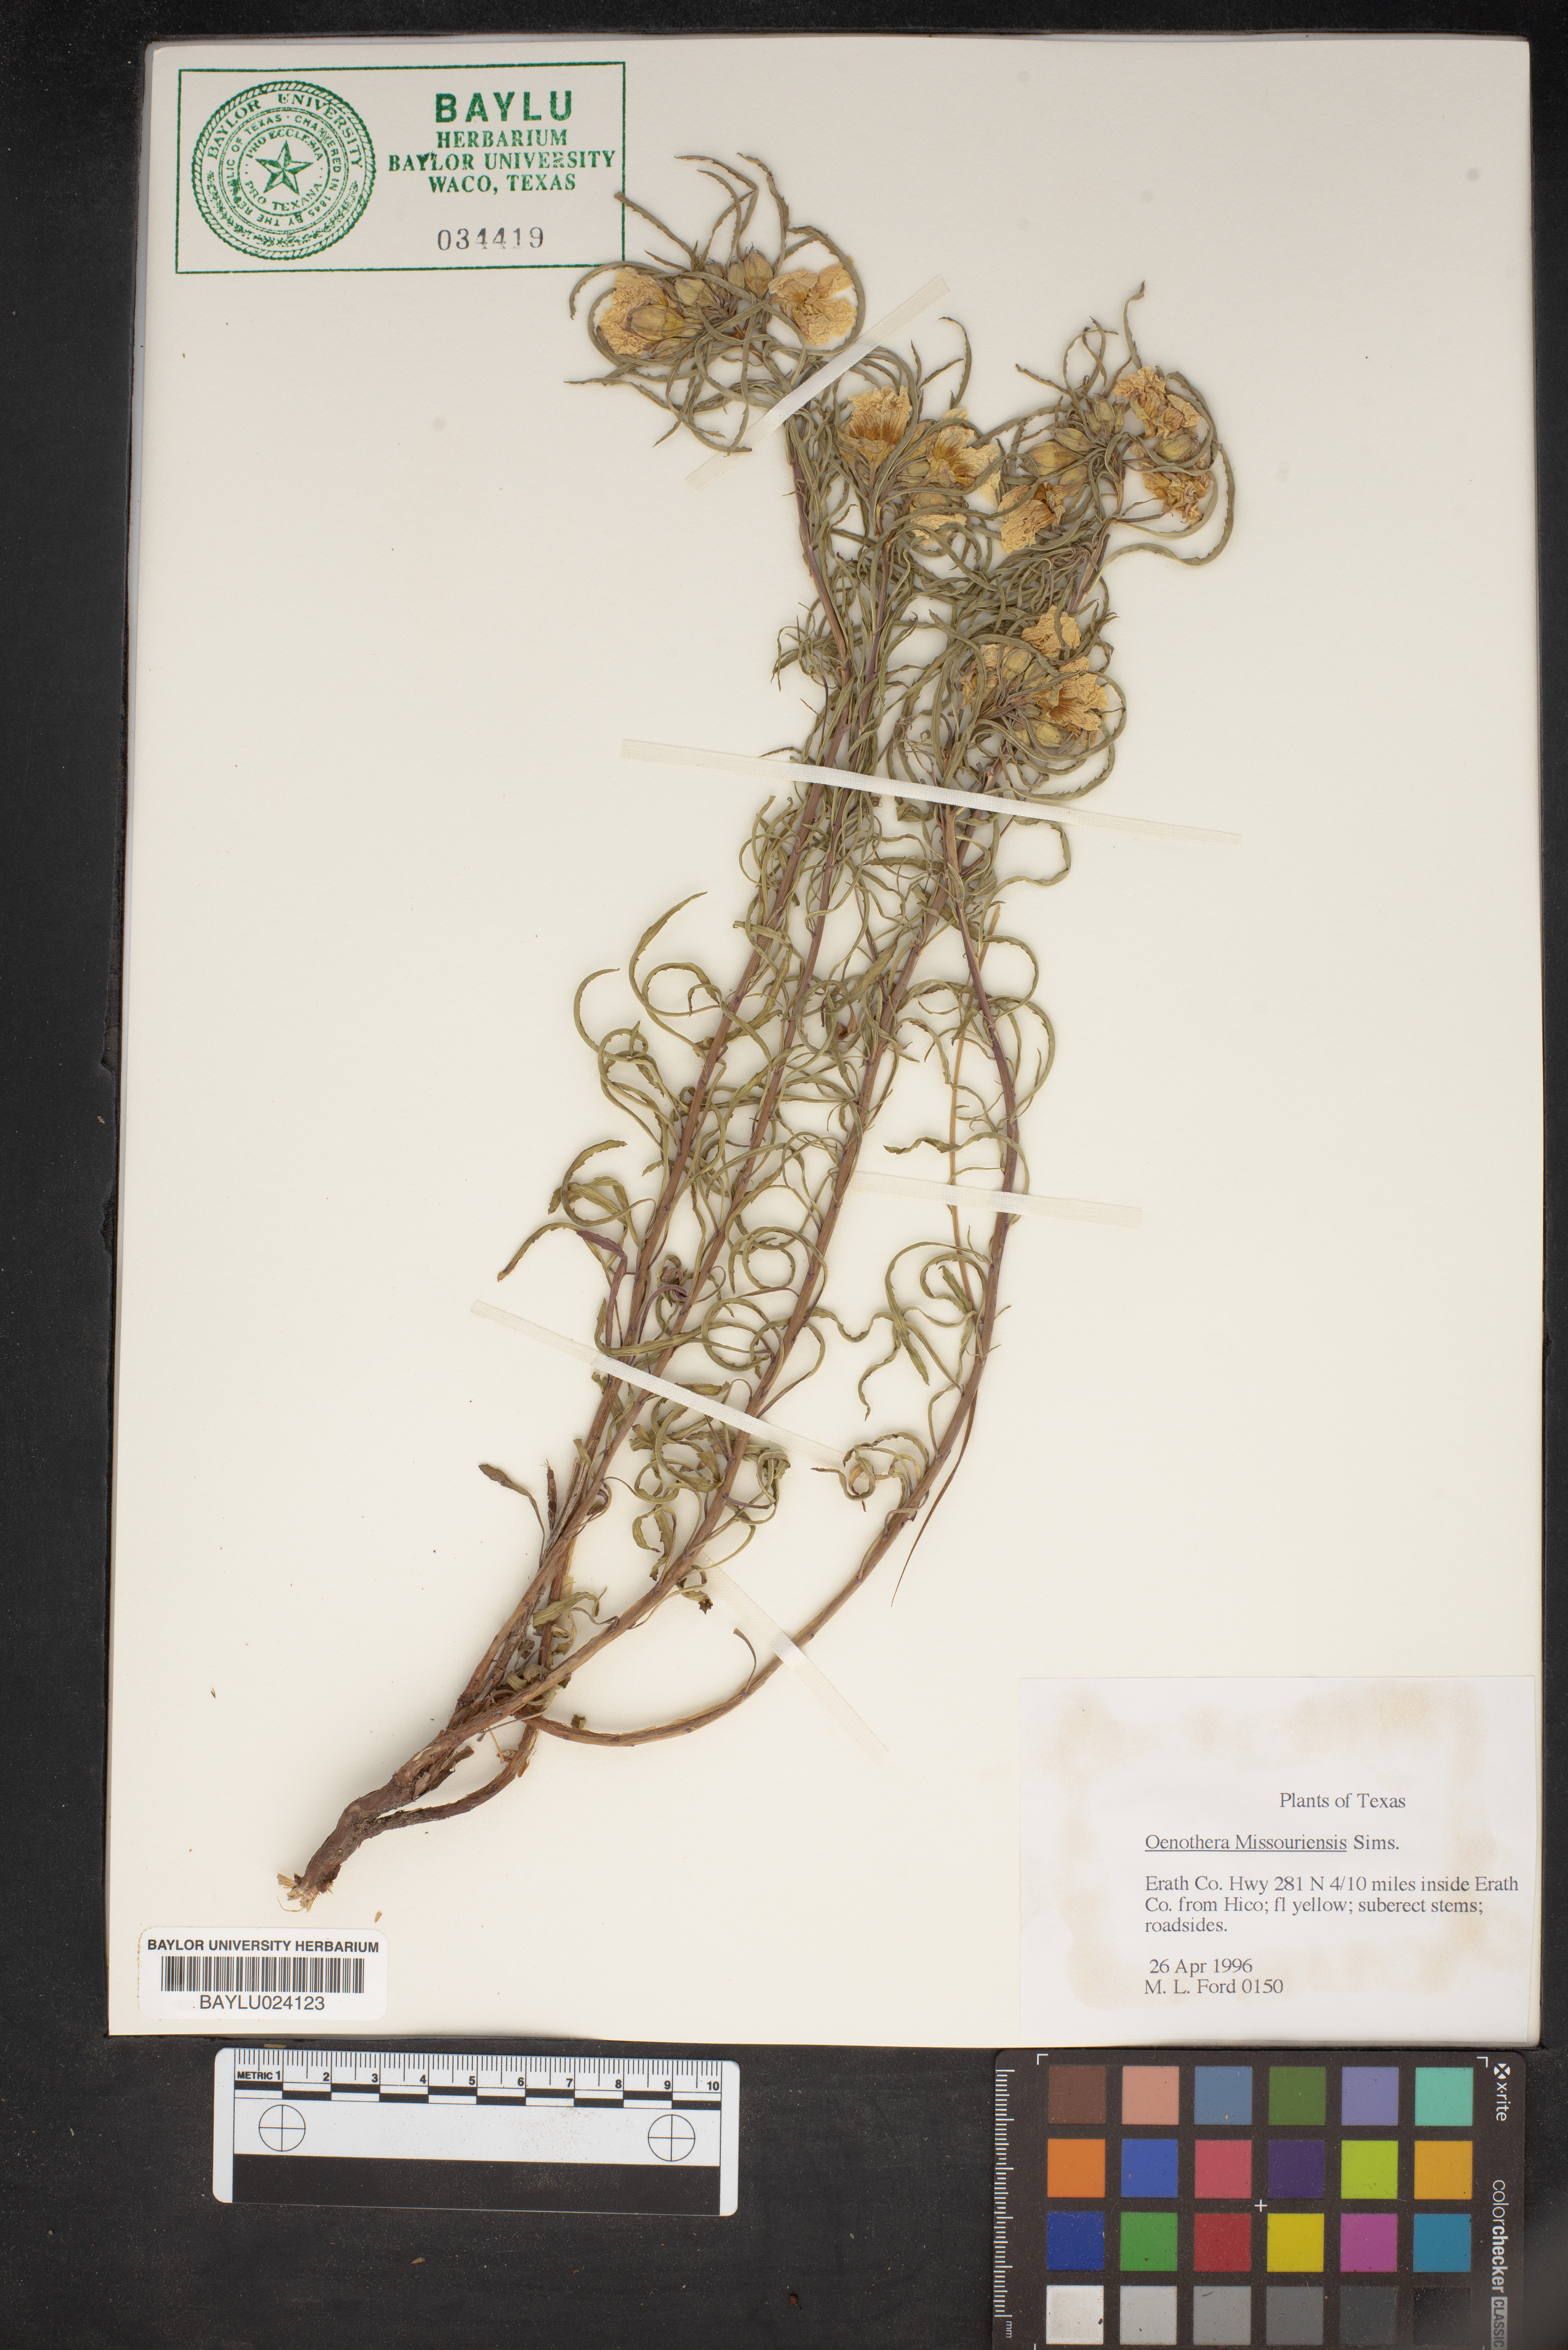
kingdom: Plantae
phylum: Tracheophyta
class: Magnoliopsida
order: Myrtales
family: Onagraceae
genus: Oenothera
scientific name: Oenothera macrocarpa
